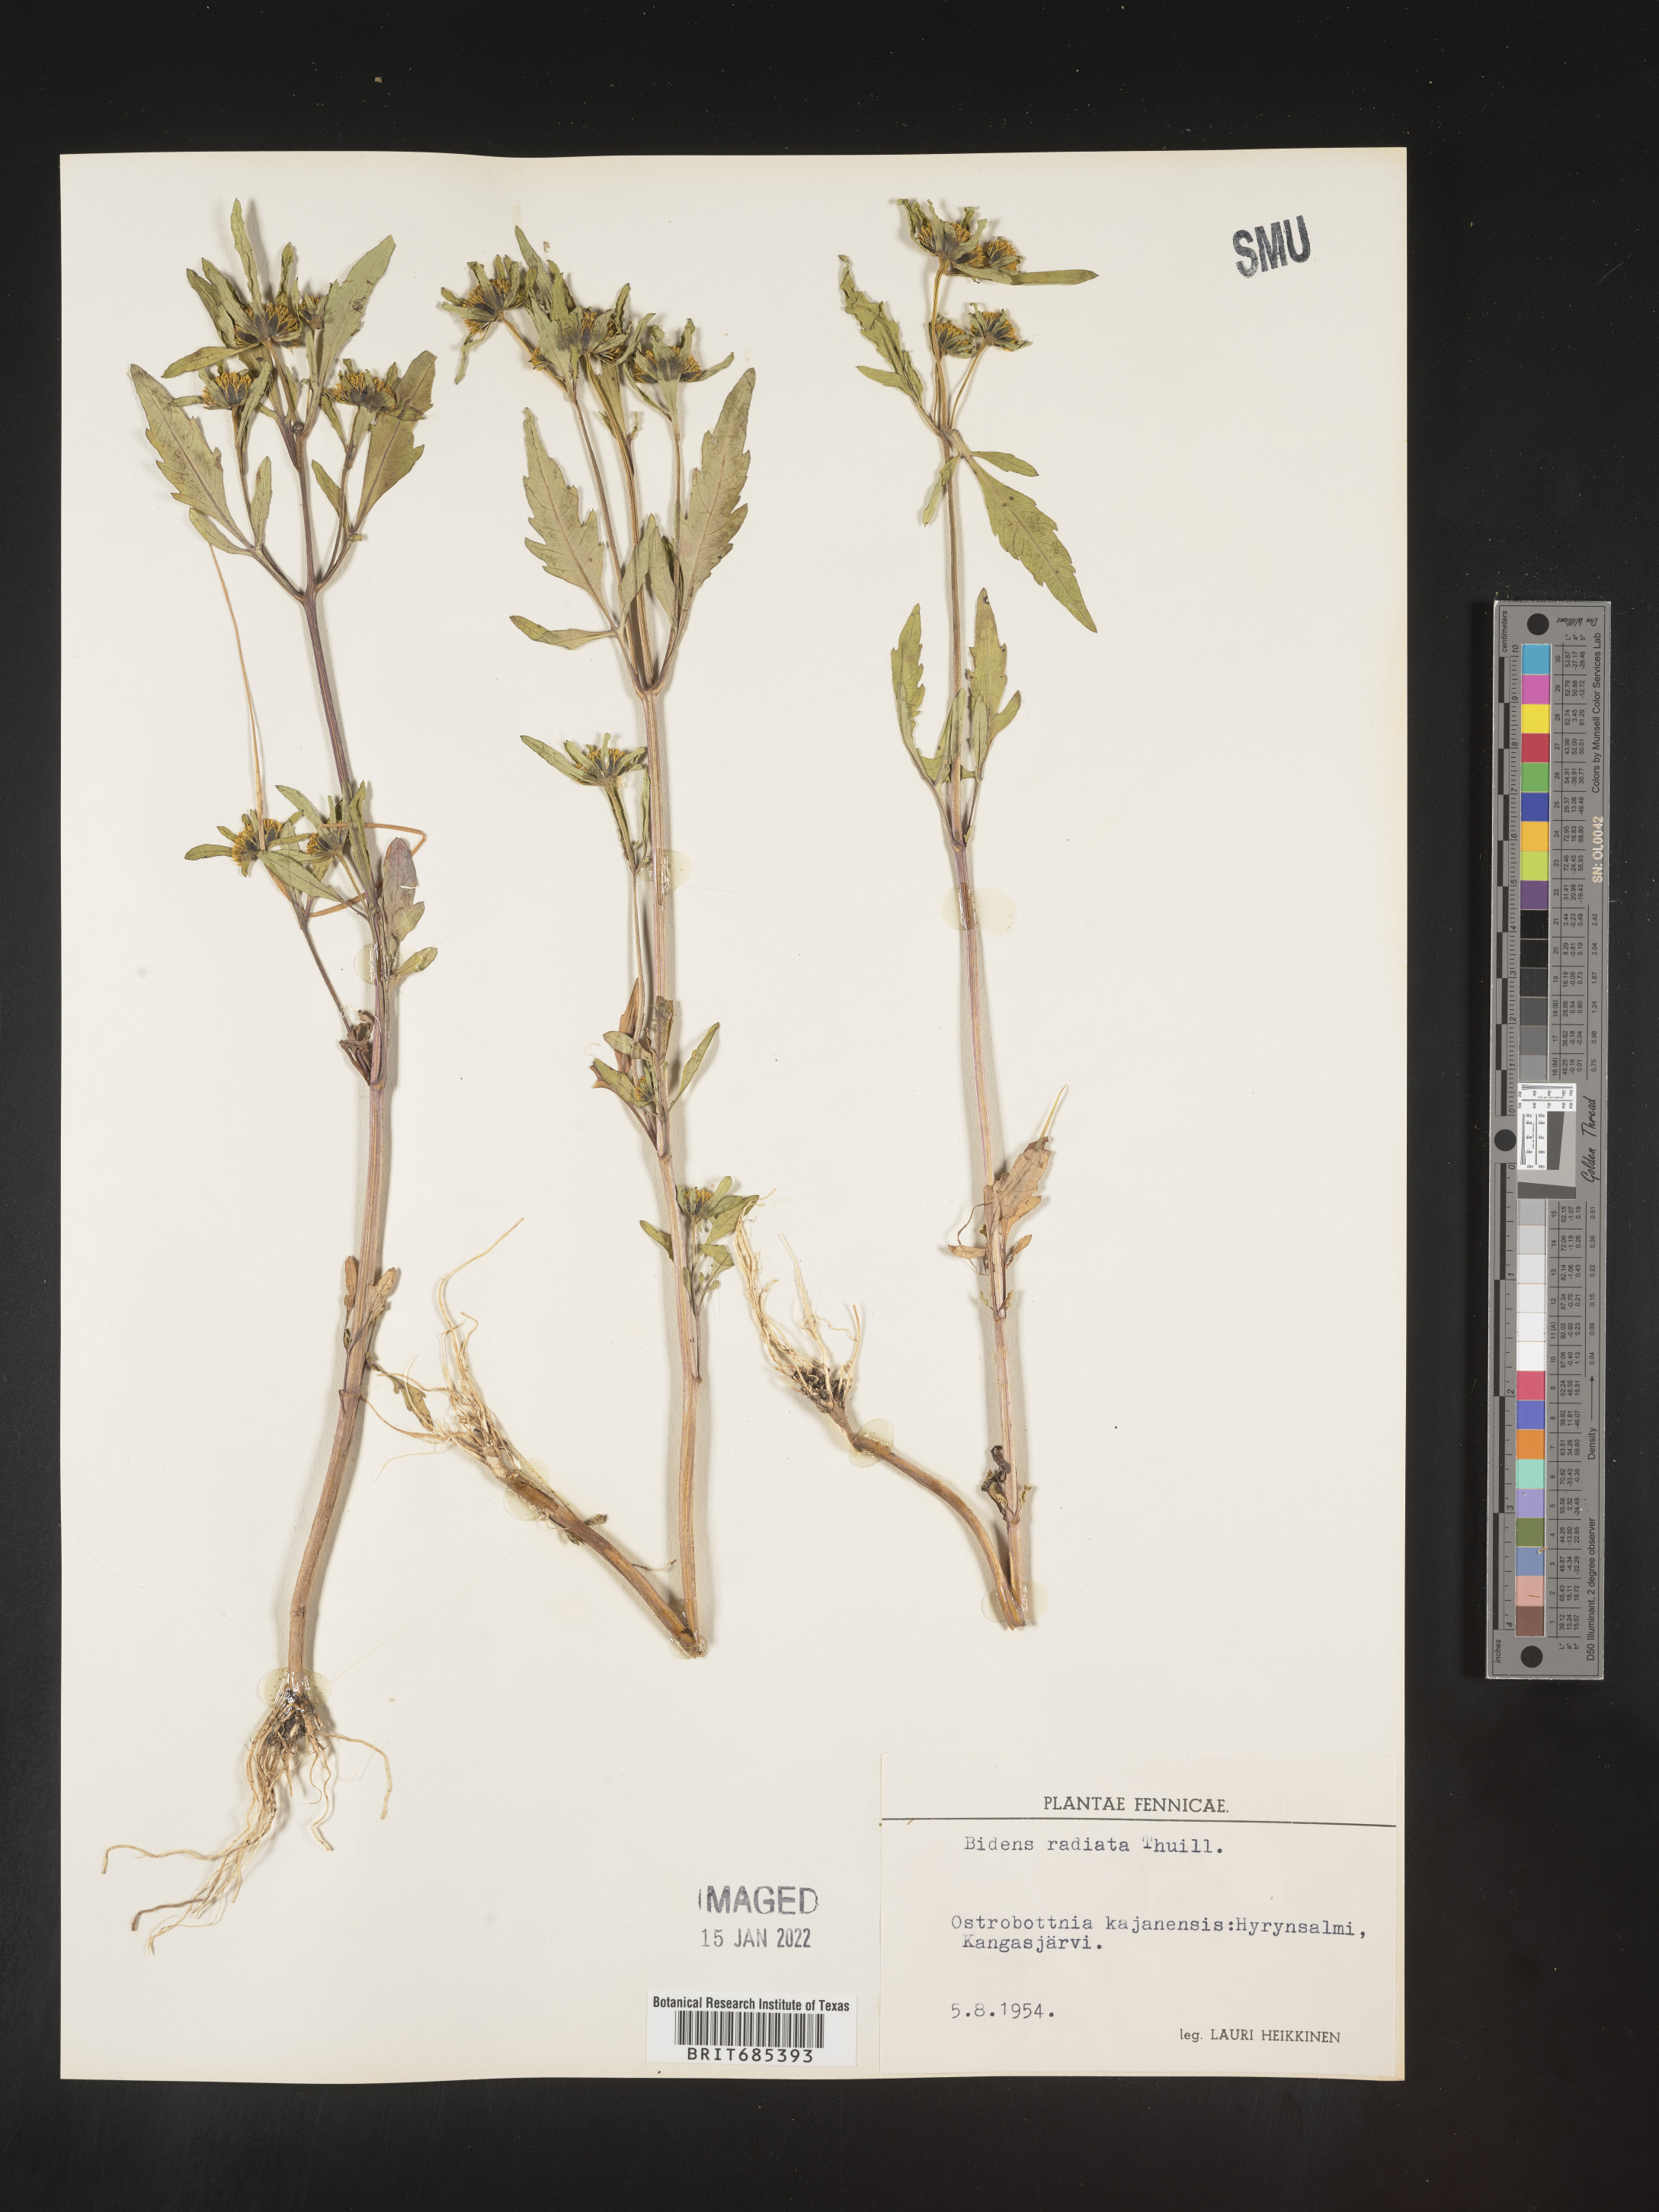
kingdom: Plantae
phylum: Tracheophyta
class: Magnoliopsida
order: Asterales
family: Asteraceae
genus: Bidens
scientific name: Bidens
